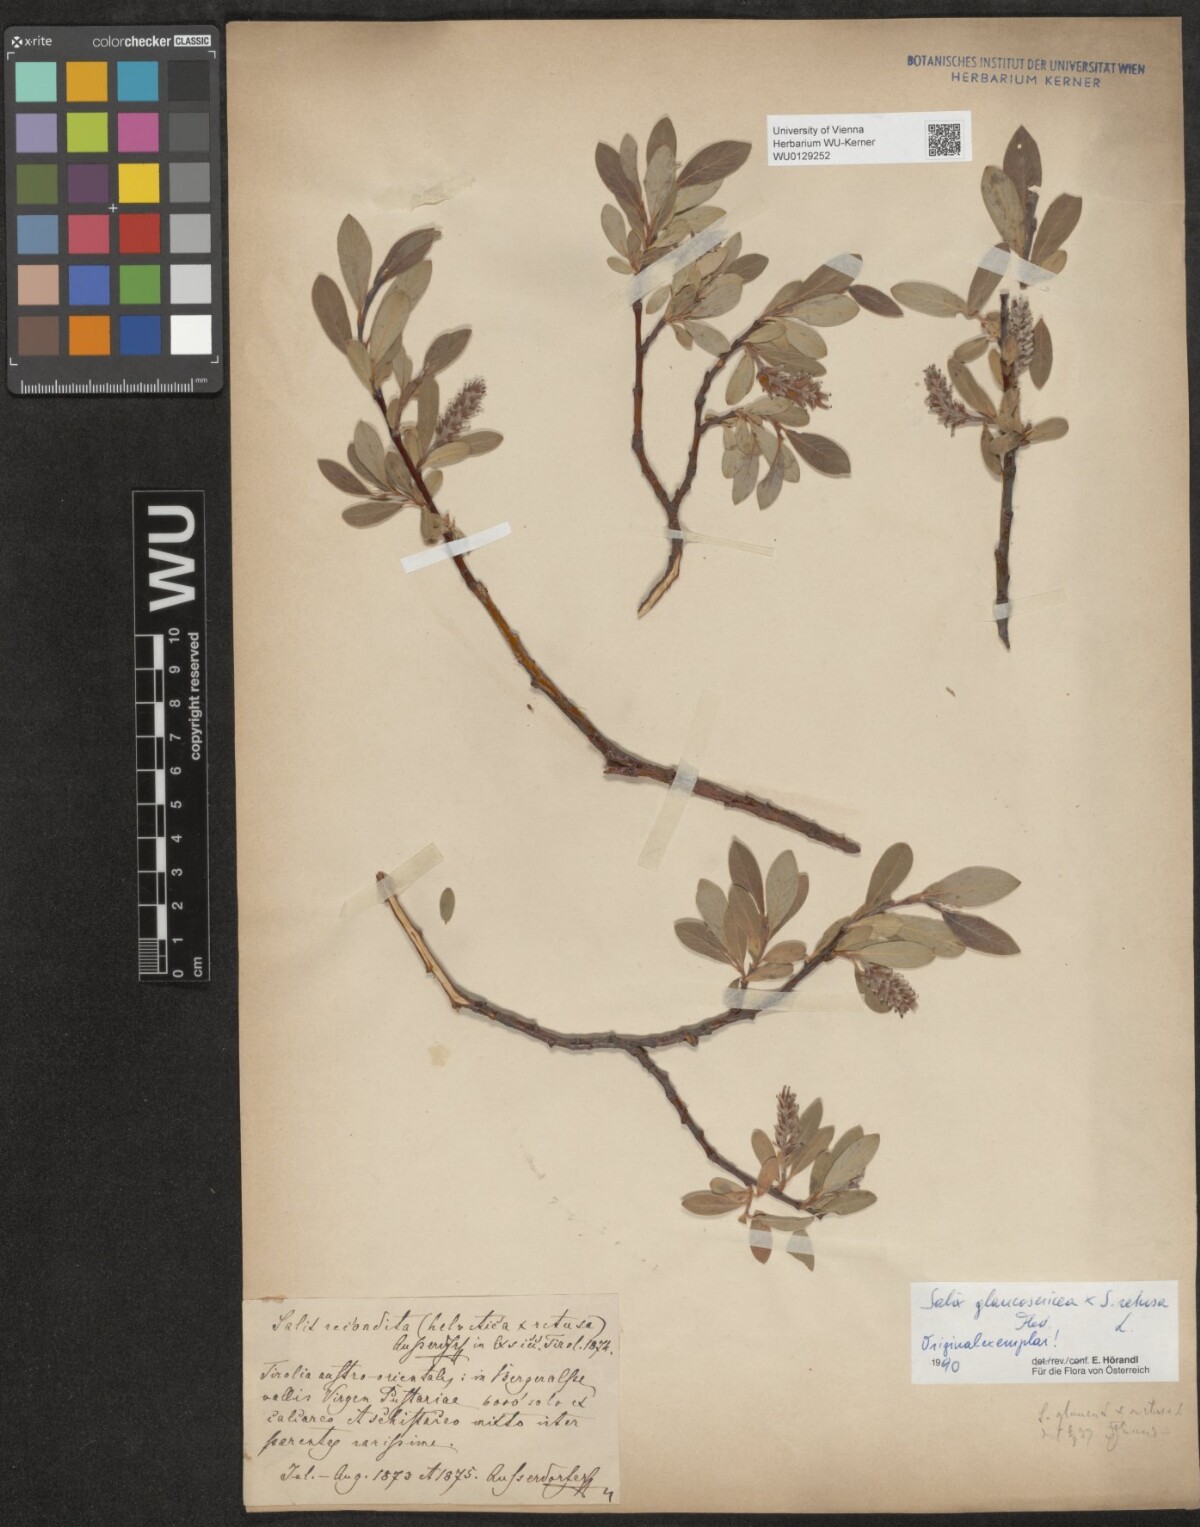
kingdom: Plantae
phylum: Tracheophyta
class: Magnoliopsida
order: Malpighiales
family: Salicaceae
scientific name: Salicaceae
